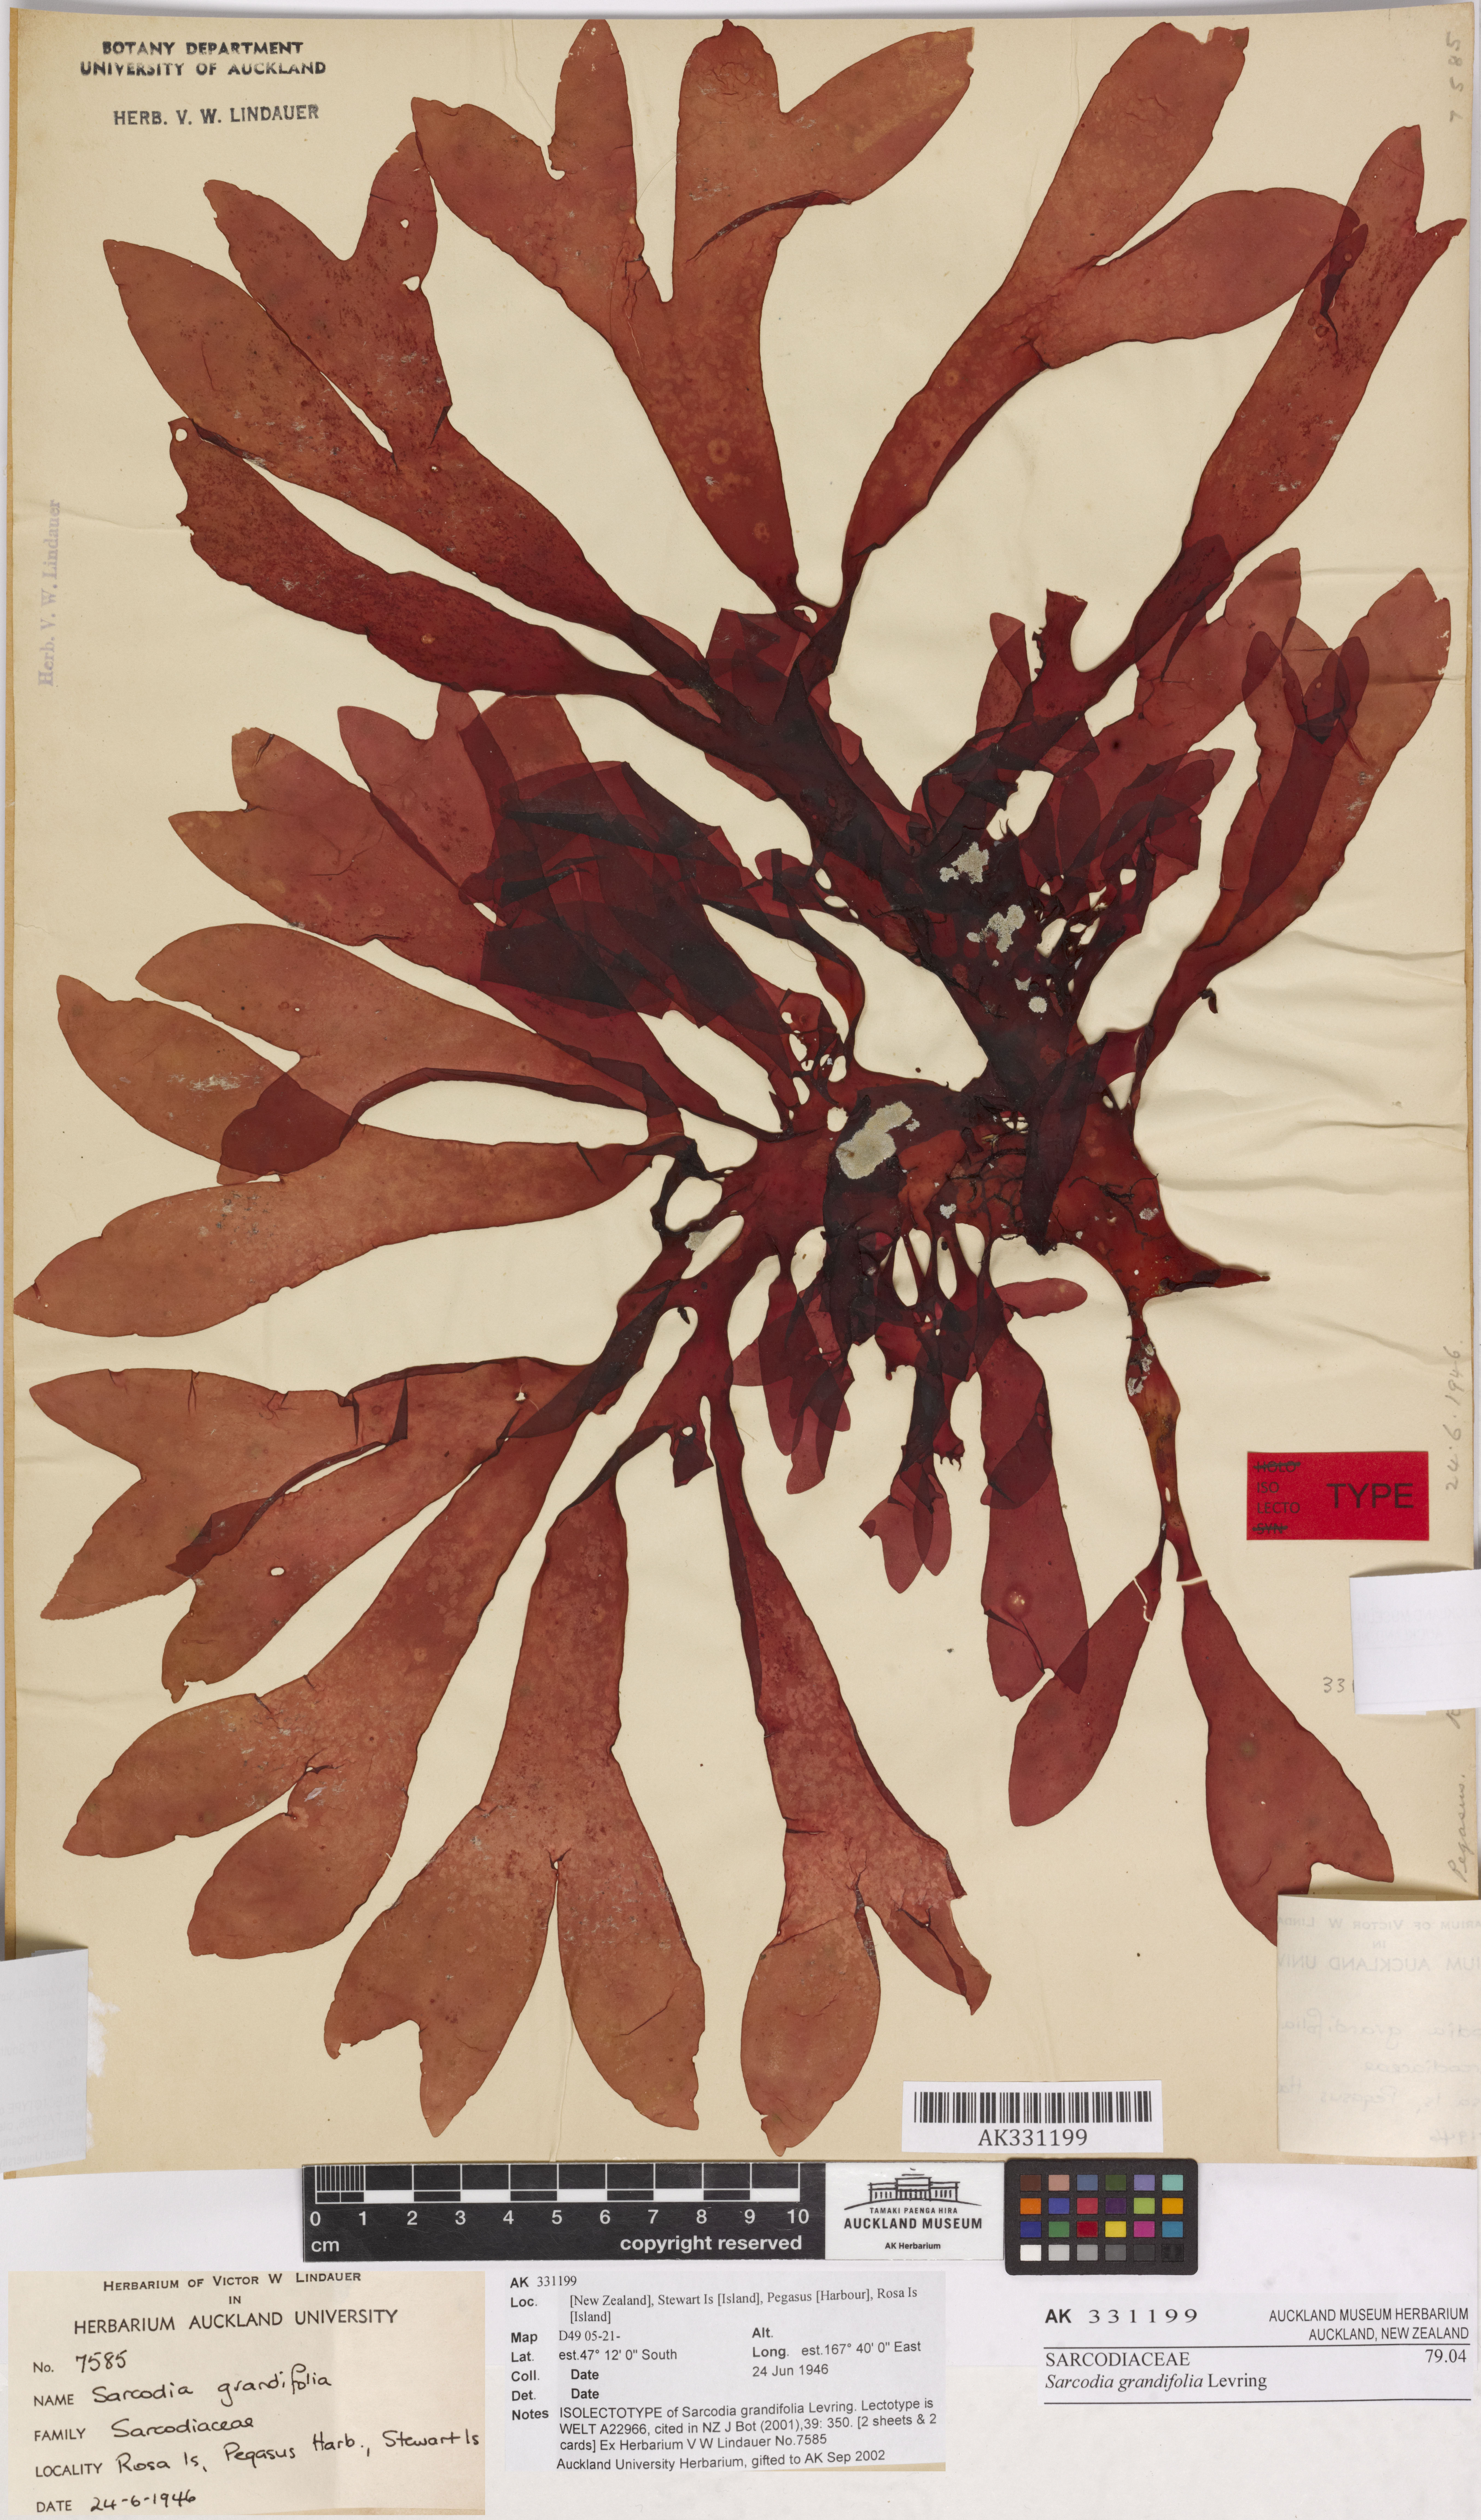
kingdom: Plantae
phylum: Rhodophyta
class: Florideophyceae
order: Gigartinales
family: Sarcodiaceae
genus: Sarcodia
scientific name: Sarcodia grandifolia
